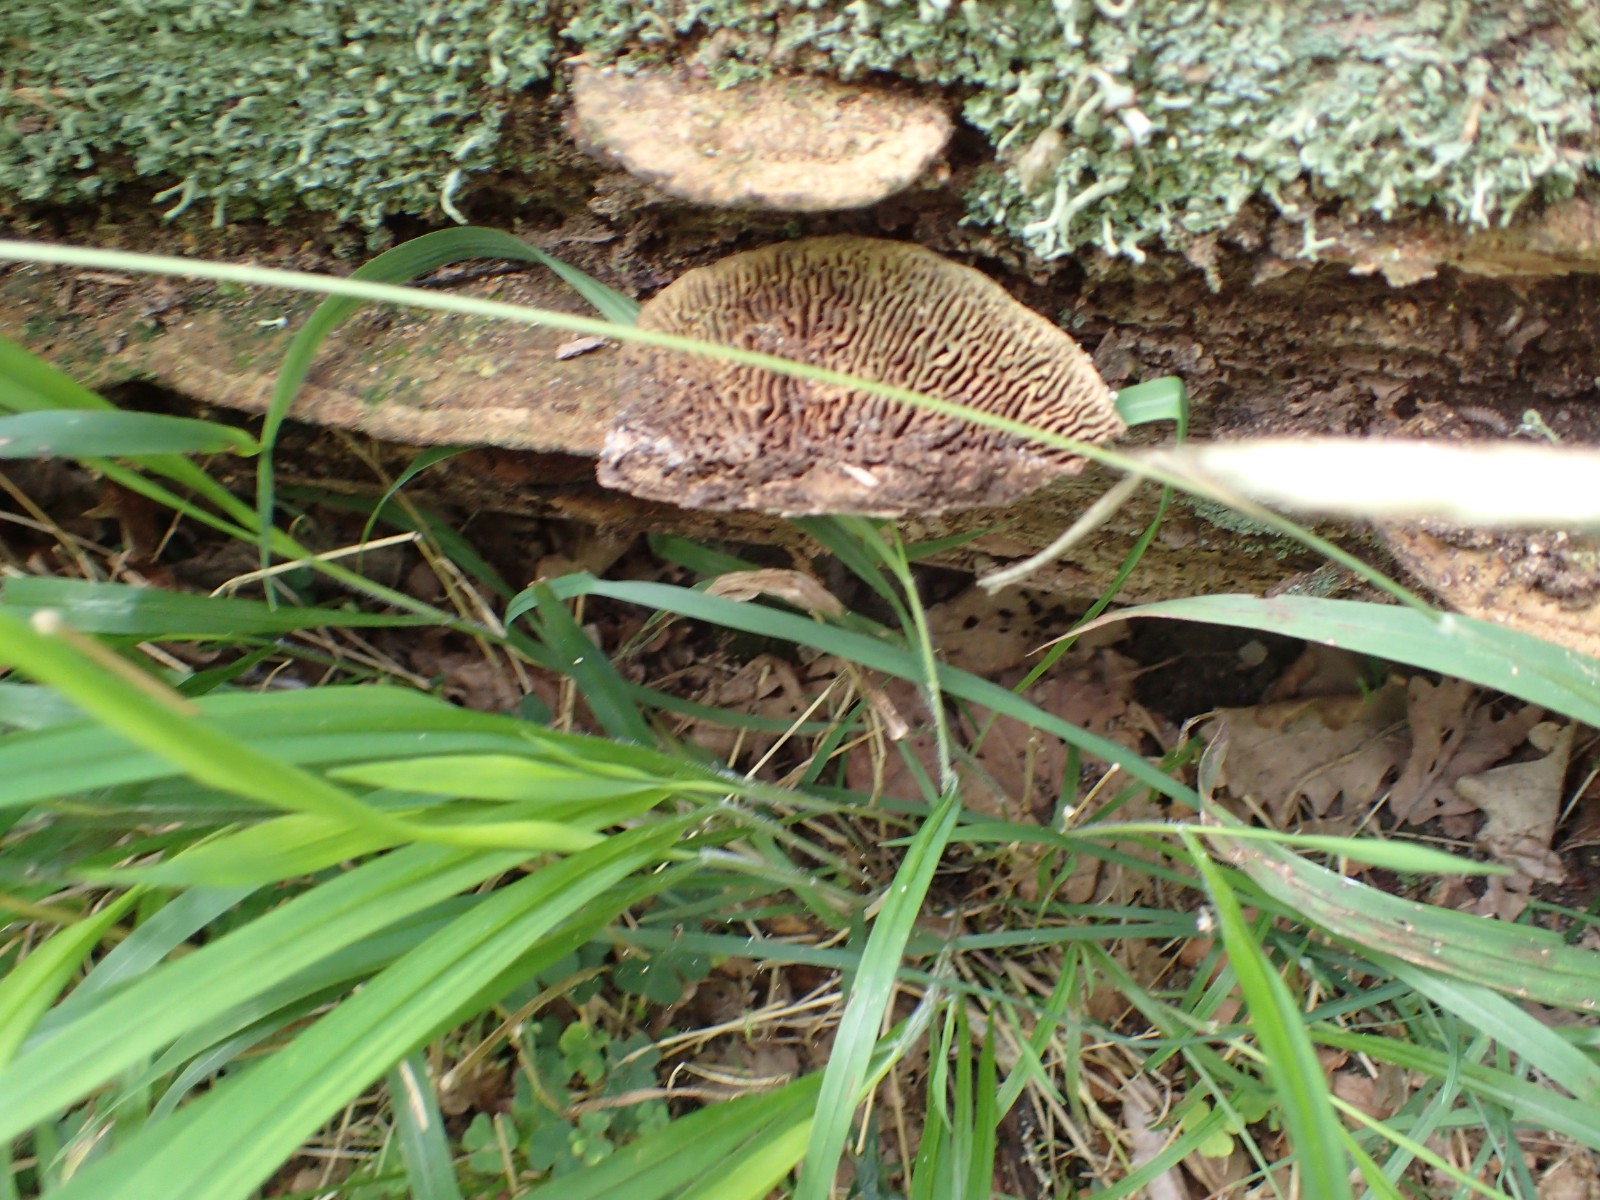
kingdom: Fungi
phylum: Basidiomycota
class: Agaricomycetes
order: Polyporales
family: Fomitopsidaceae
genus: Daedalea
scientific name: Daedalea quercina
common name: ege-labyrintsvamp
